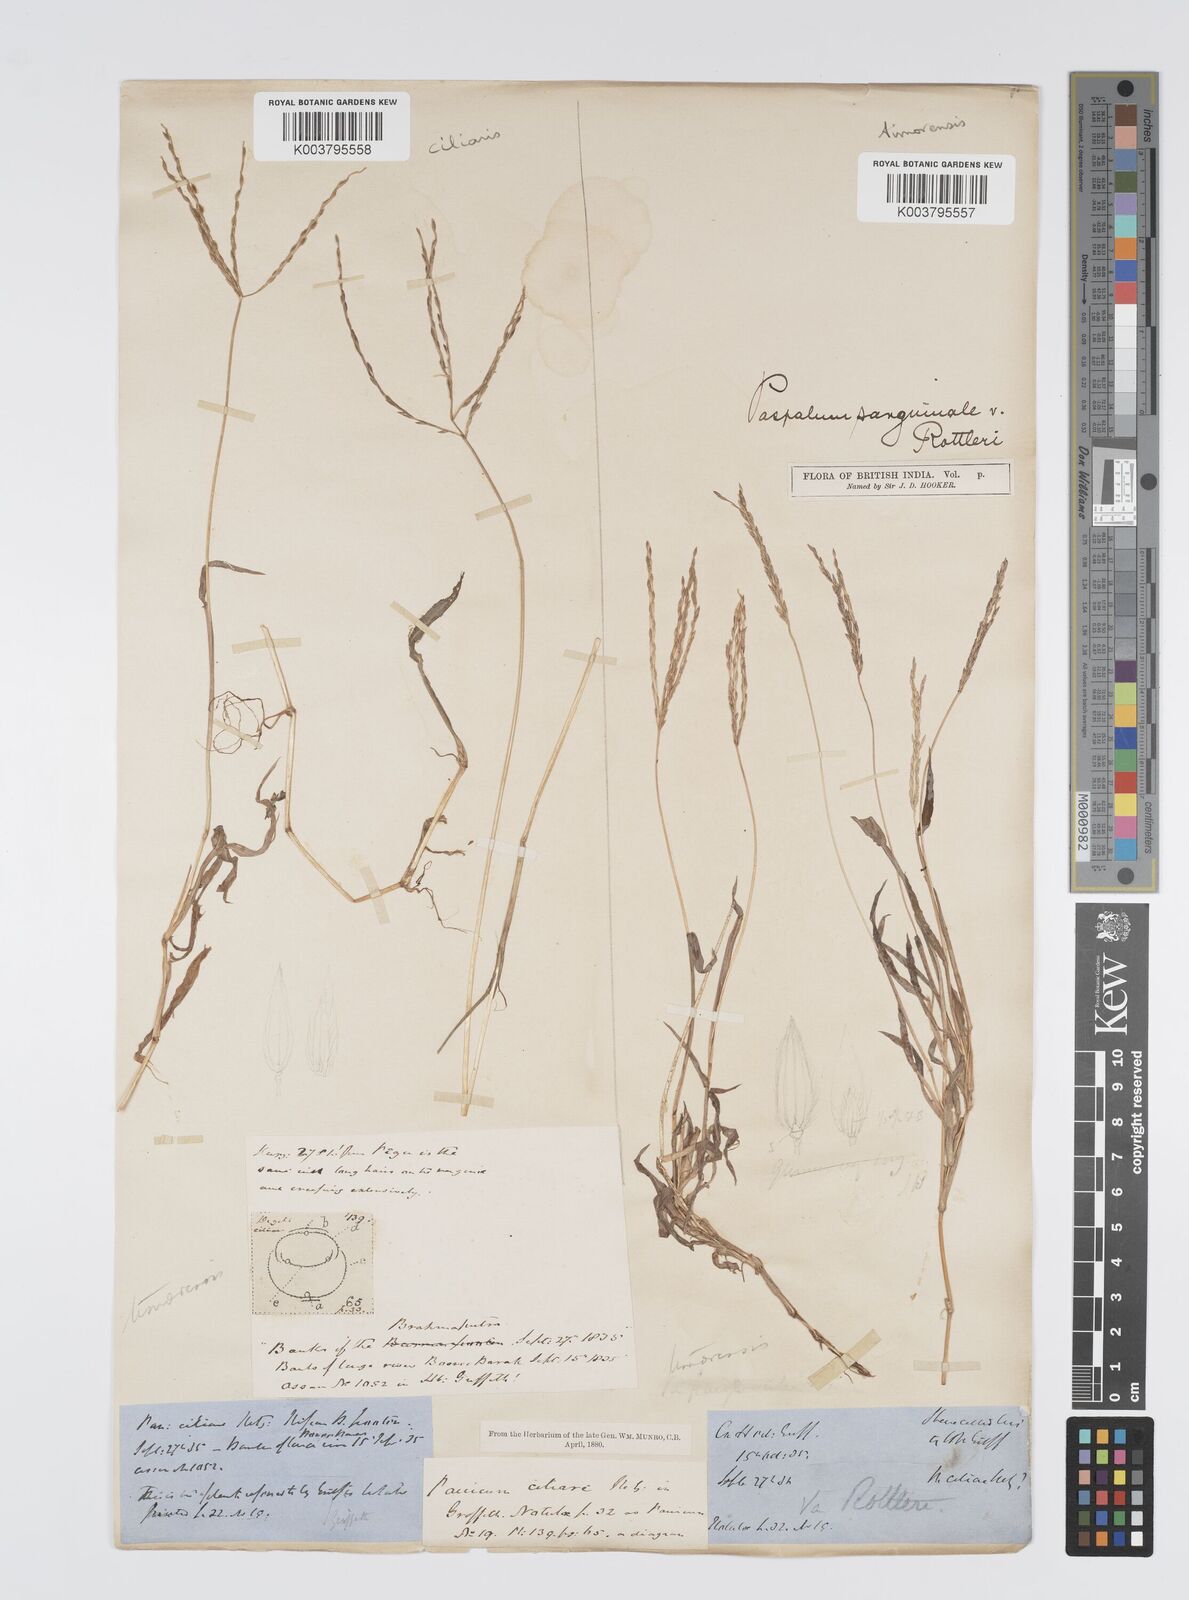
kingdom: Plantae
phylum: Tracheophyta
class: Liliopsida
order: Poales
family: Poaceae
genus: Digitaria
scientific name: Digitaria radicosa
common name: Trailing crabgrass
